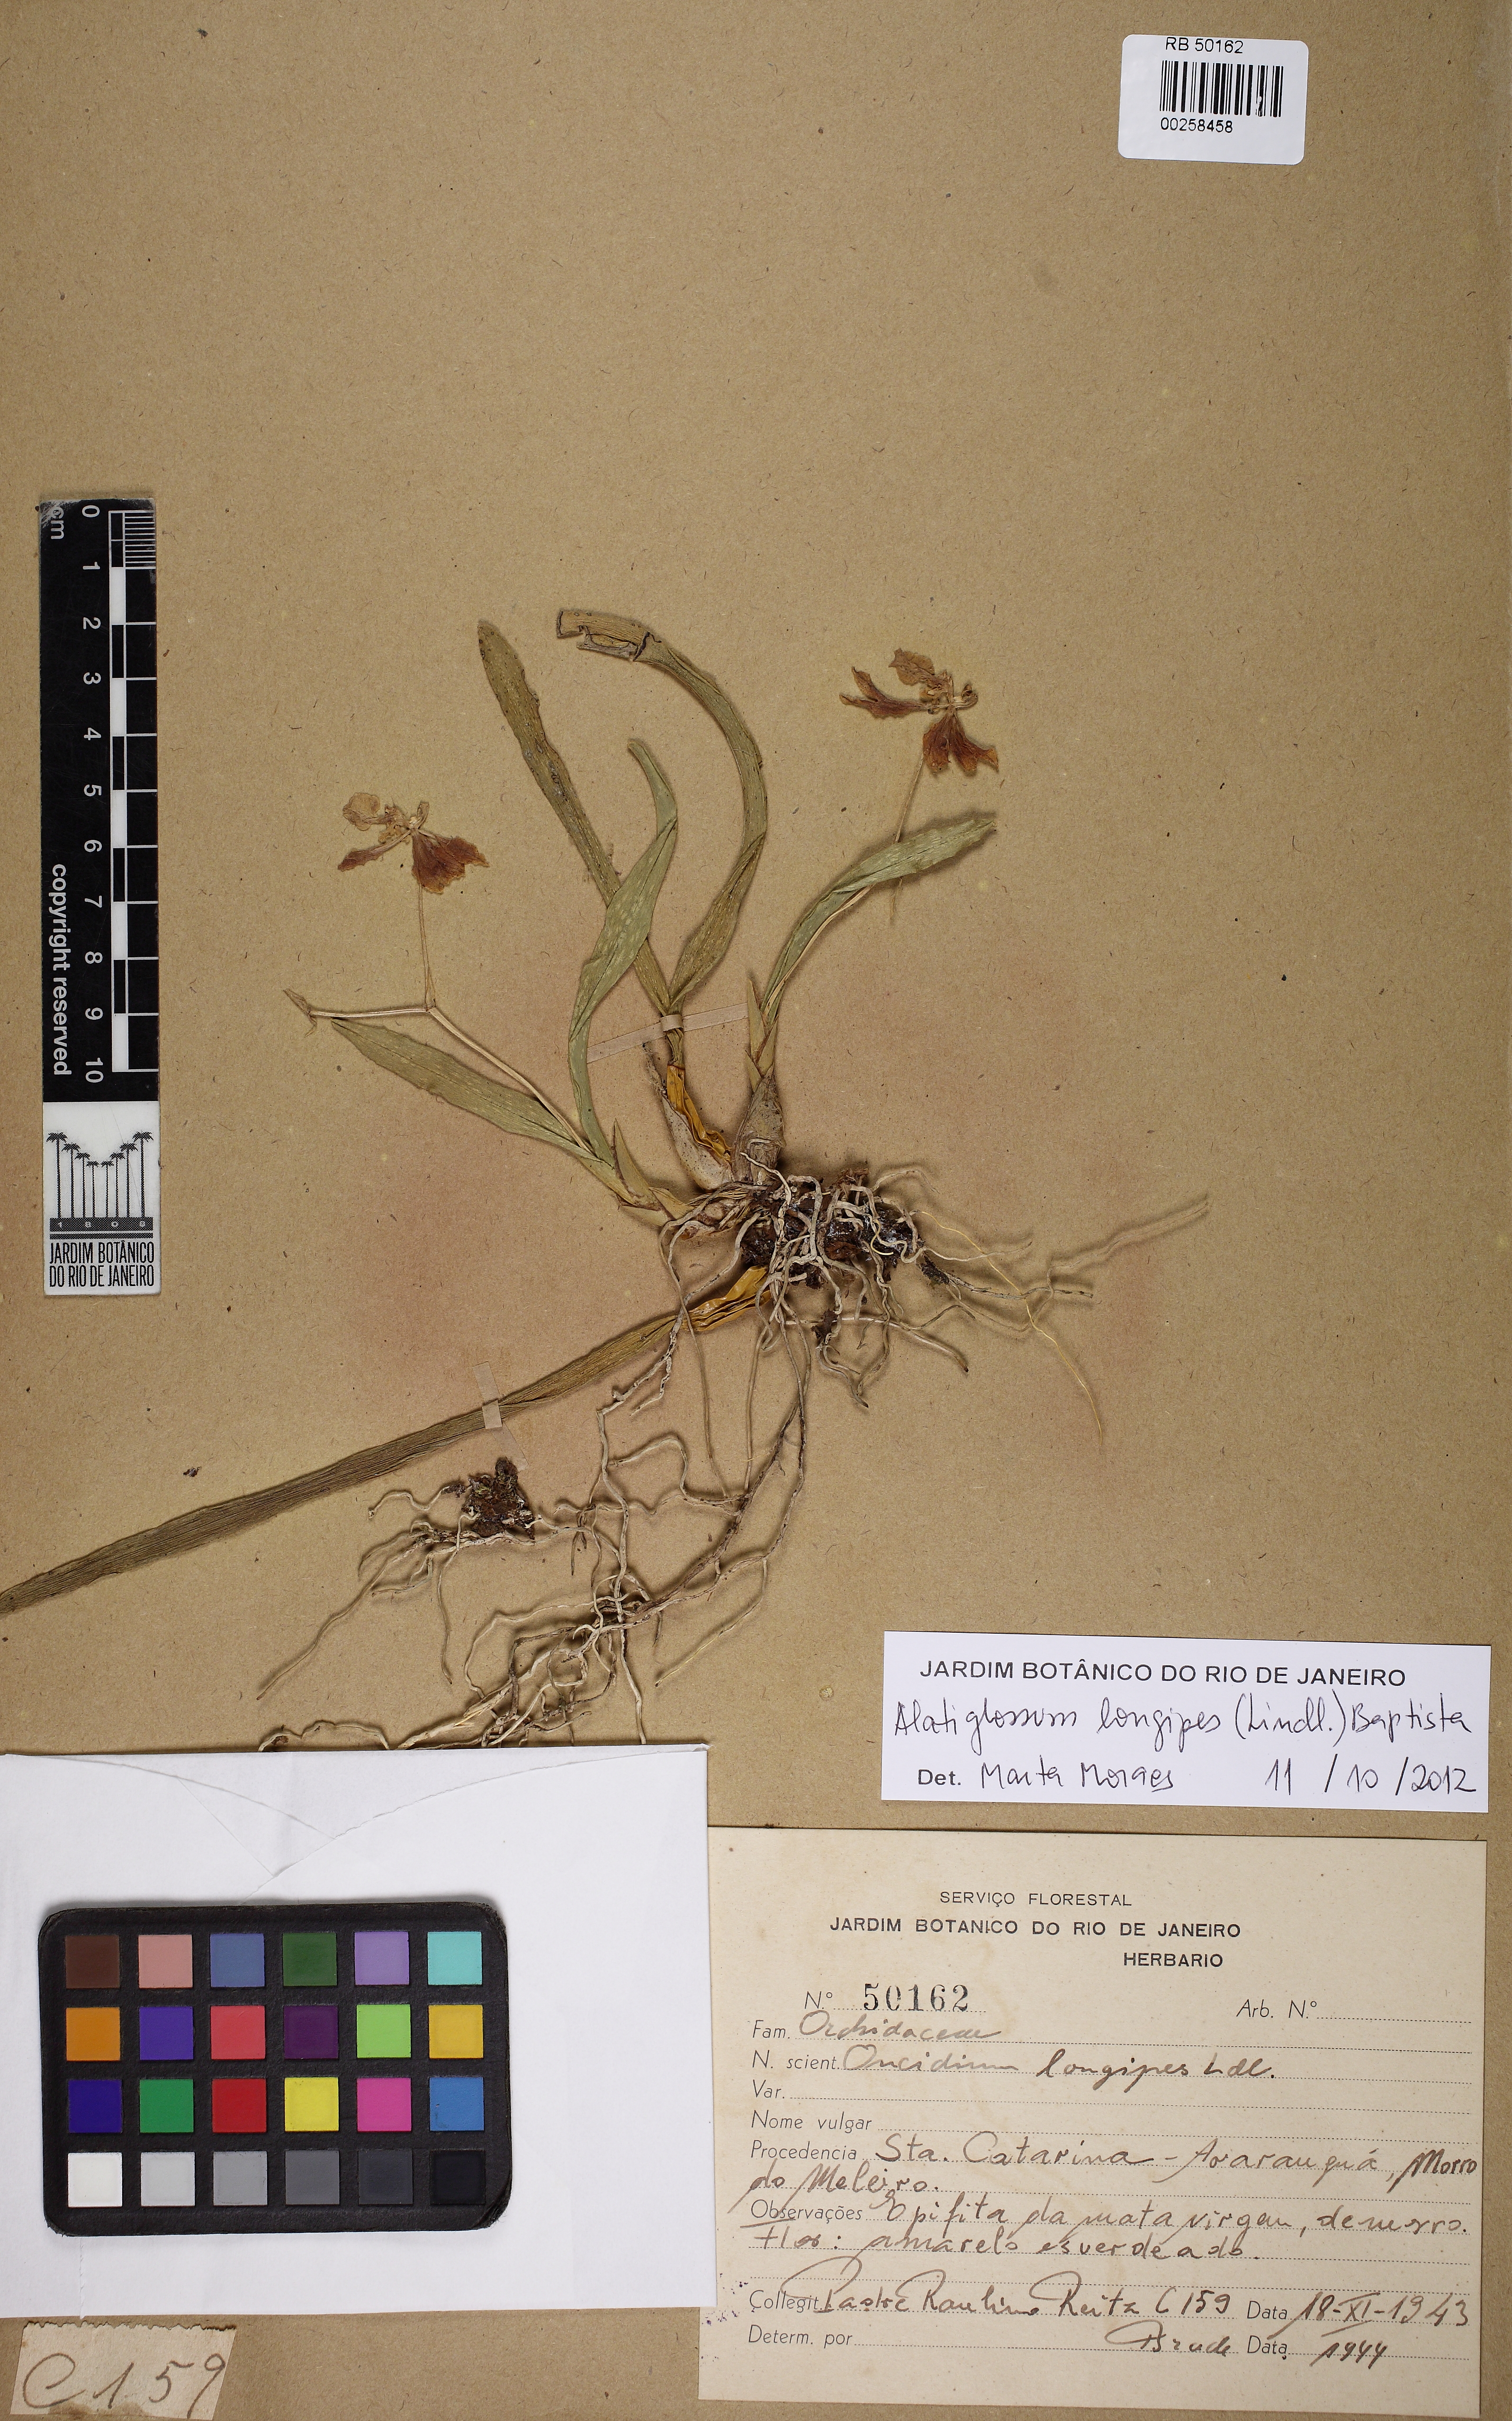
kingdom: Plantae
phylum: Tracheophyta
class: Liliopsida
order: Asparagales
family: Orchidaceae
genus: Gomesa
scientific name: Gomesa longipes
